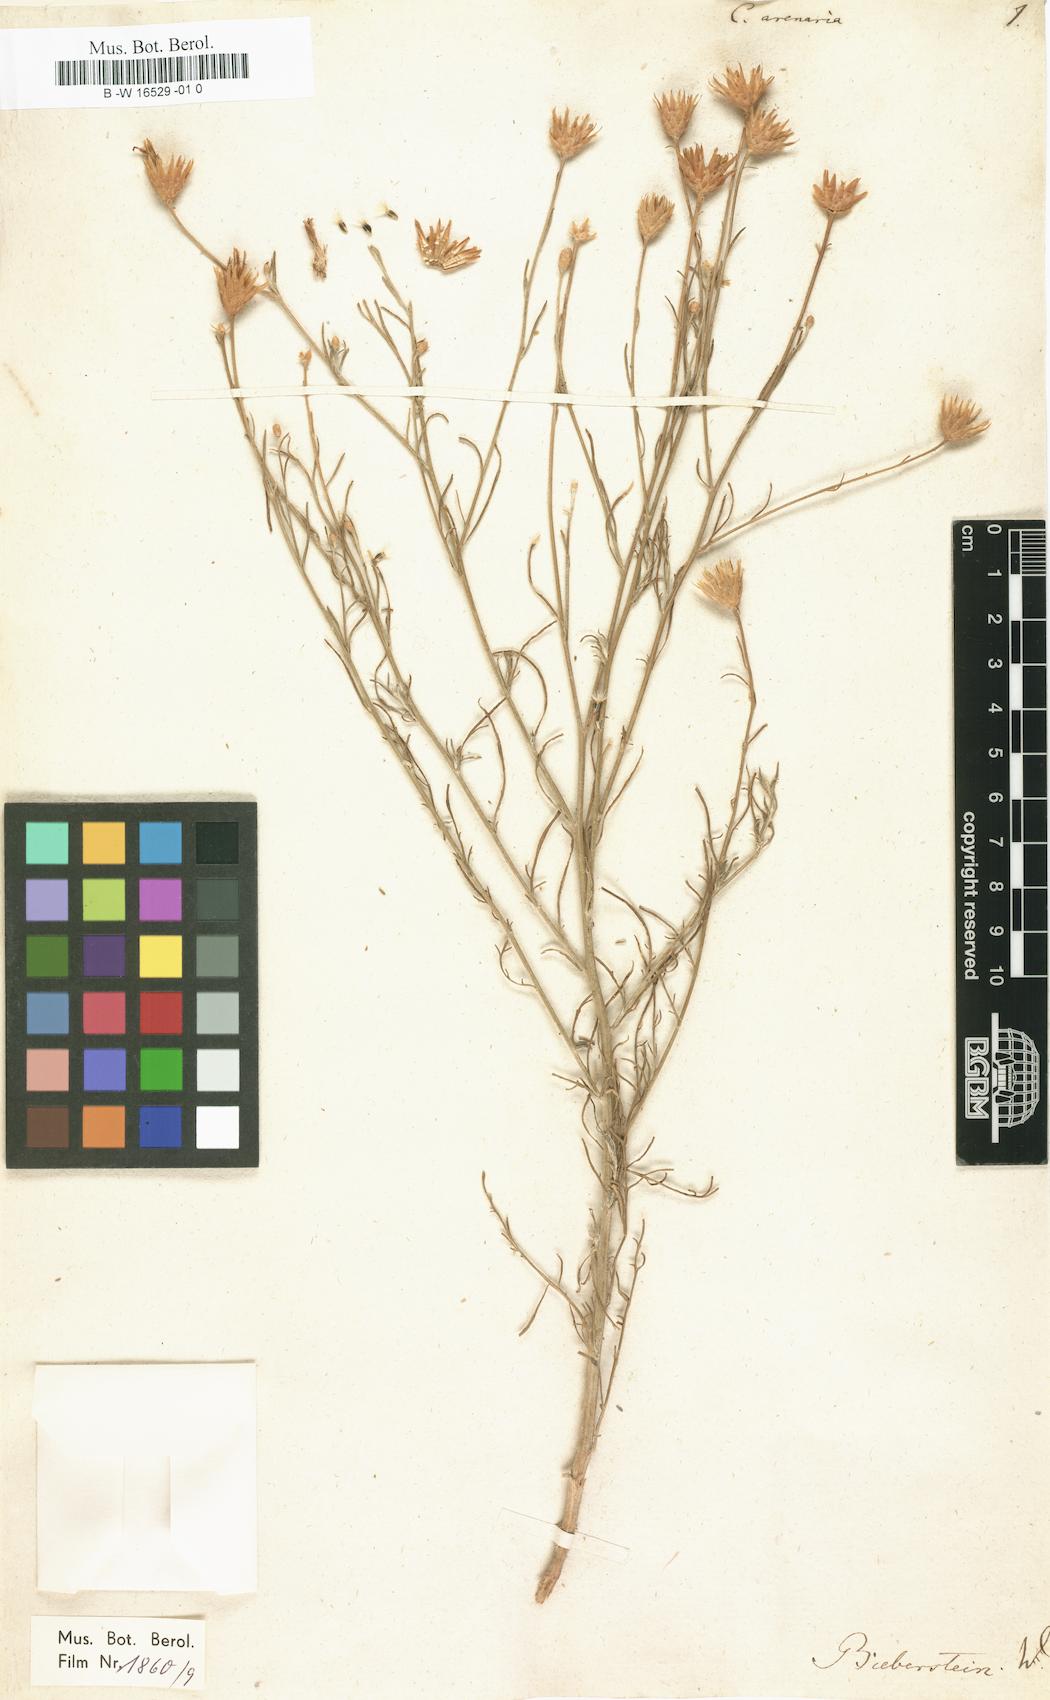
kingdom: Plantae
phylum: Tracheophyta
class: Magnoliopsida
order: Asterales
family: Asteraceae
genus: Centaurea
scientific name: Centaurea arenaria
